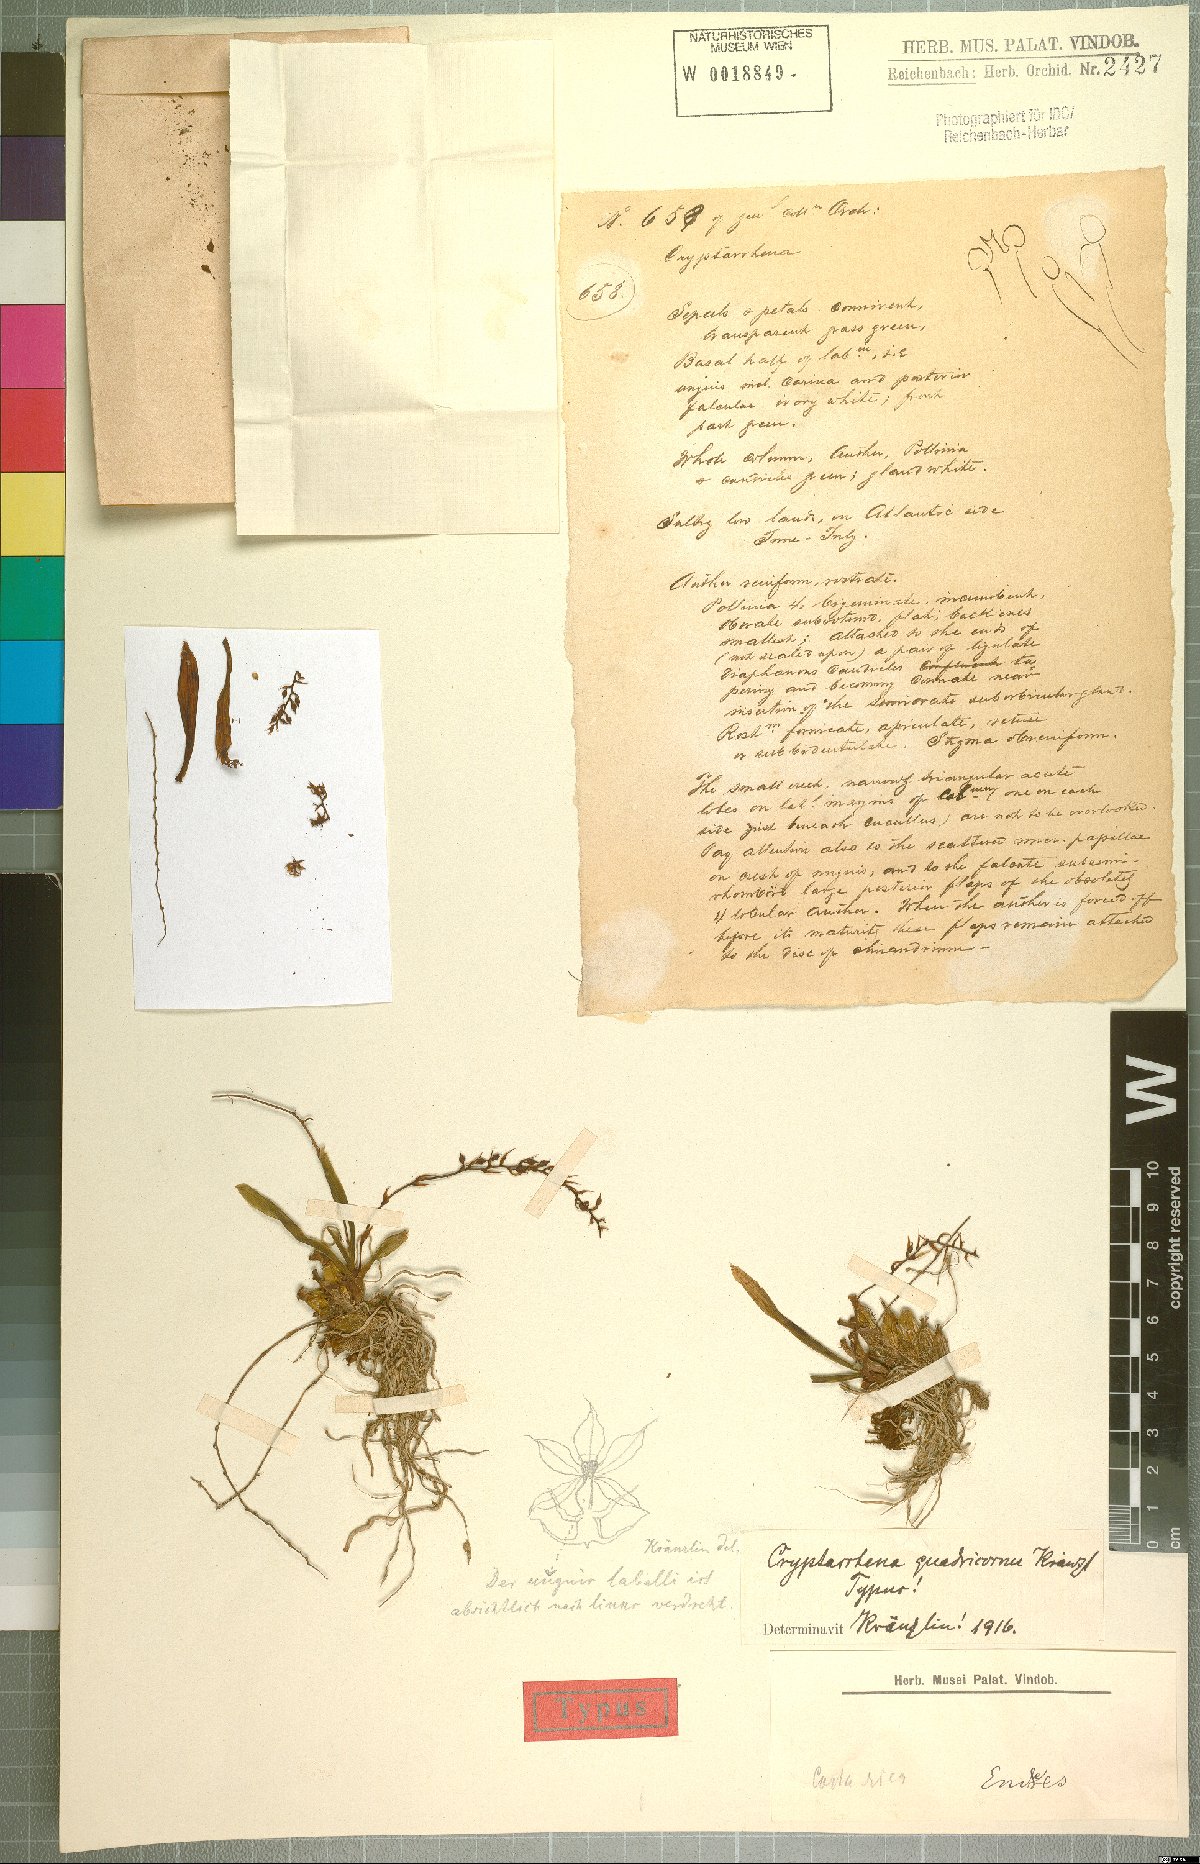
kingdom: Plantae
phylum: Tracheophyta
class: Liliopsida
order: Asparagales
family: Orchidaceae
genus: Cryptarrhena
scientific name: Cryptarrhena guatemalensis
